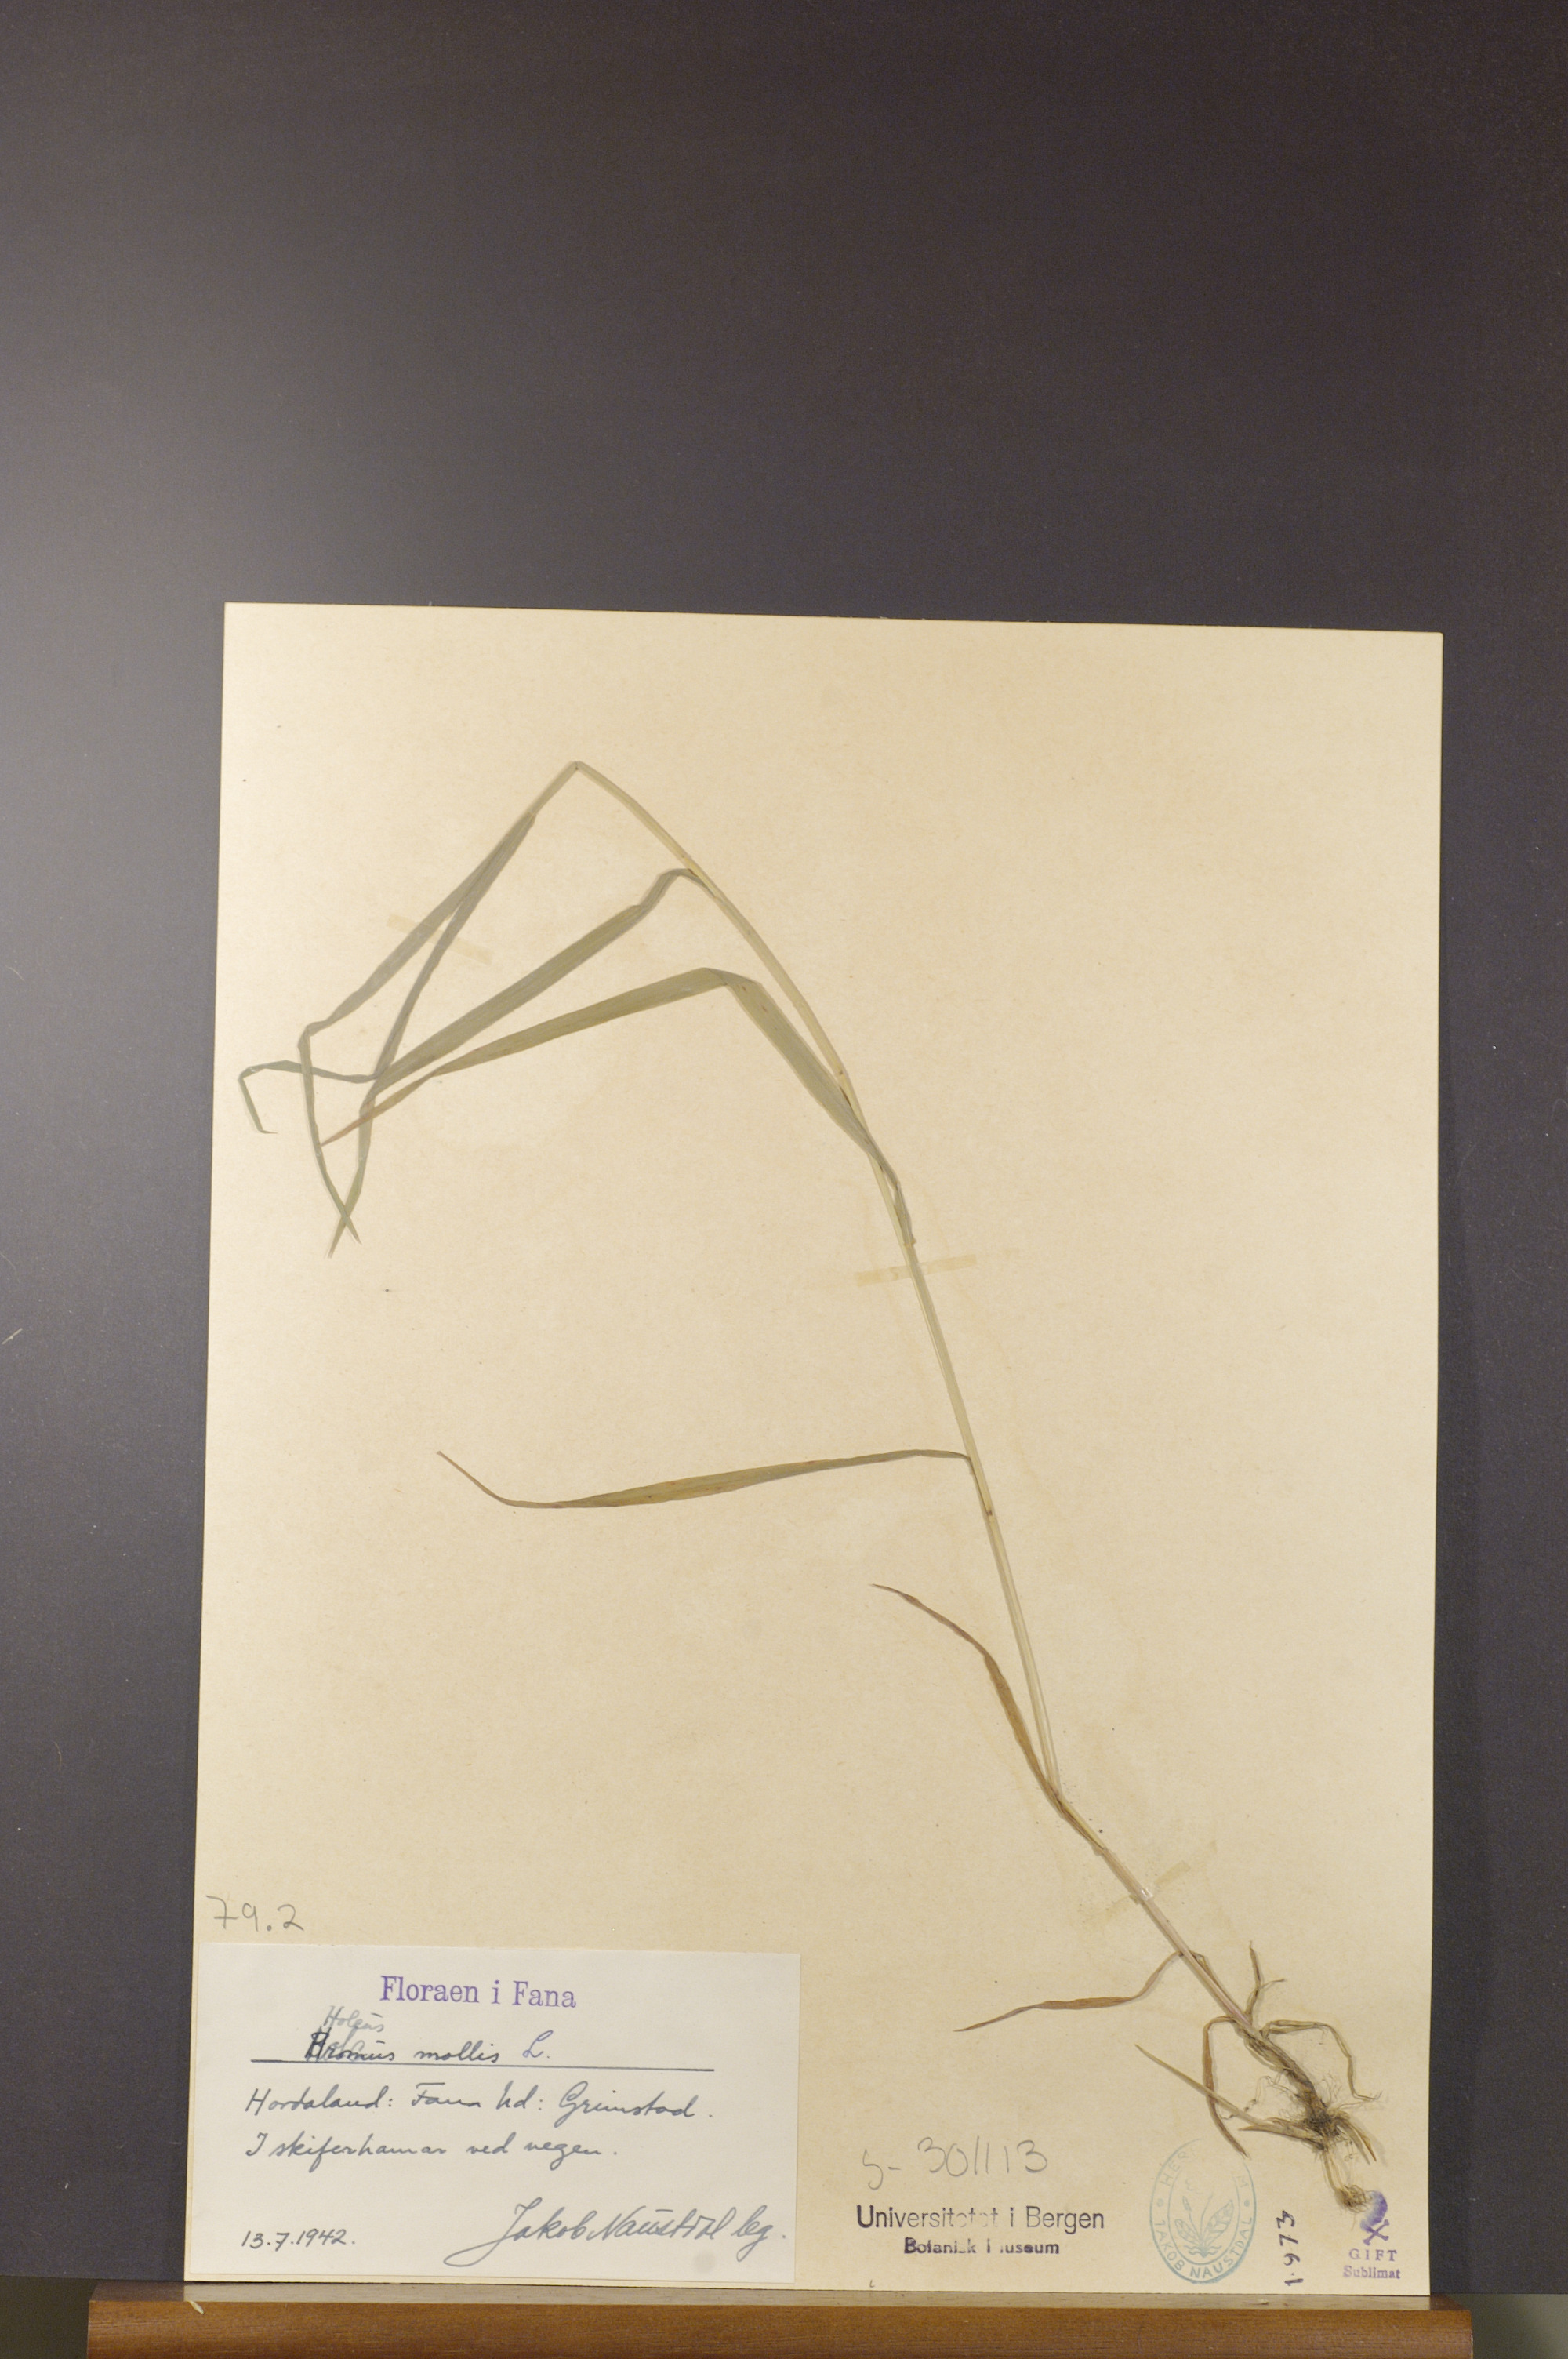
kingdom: Plantae
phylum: Tracheophyta
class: Liliopsida
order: Poales
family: Poaceae
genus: Holcus
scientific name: Holcus mollis
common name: Creeping velvetgrass
